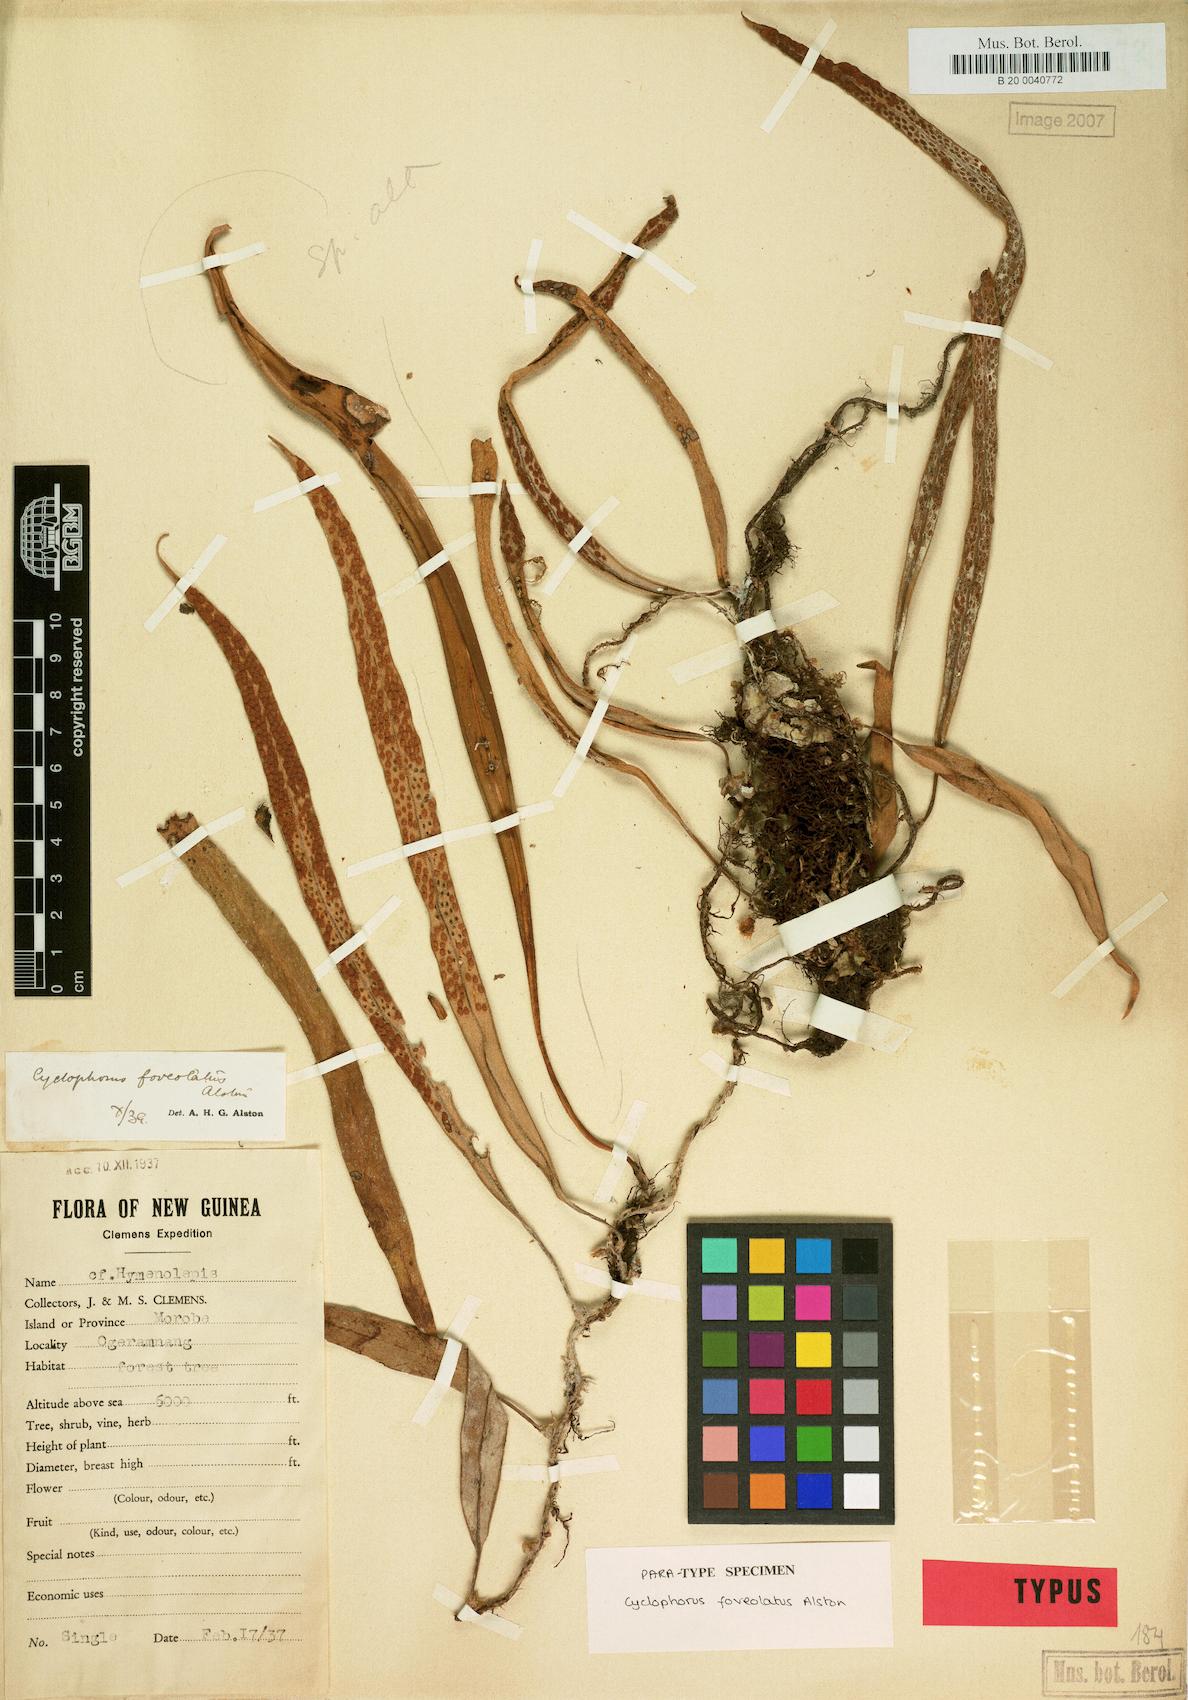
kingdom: Plantae
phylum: Tracheophyta
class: Polypodiopsida
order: Polypodiales
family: Polypodiaceae
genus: Pyrrosia
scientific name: Pyrrosia foveolata
